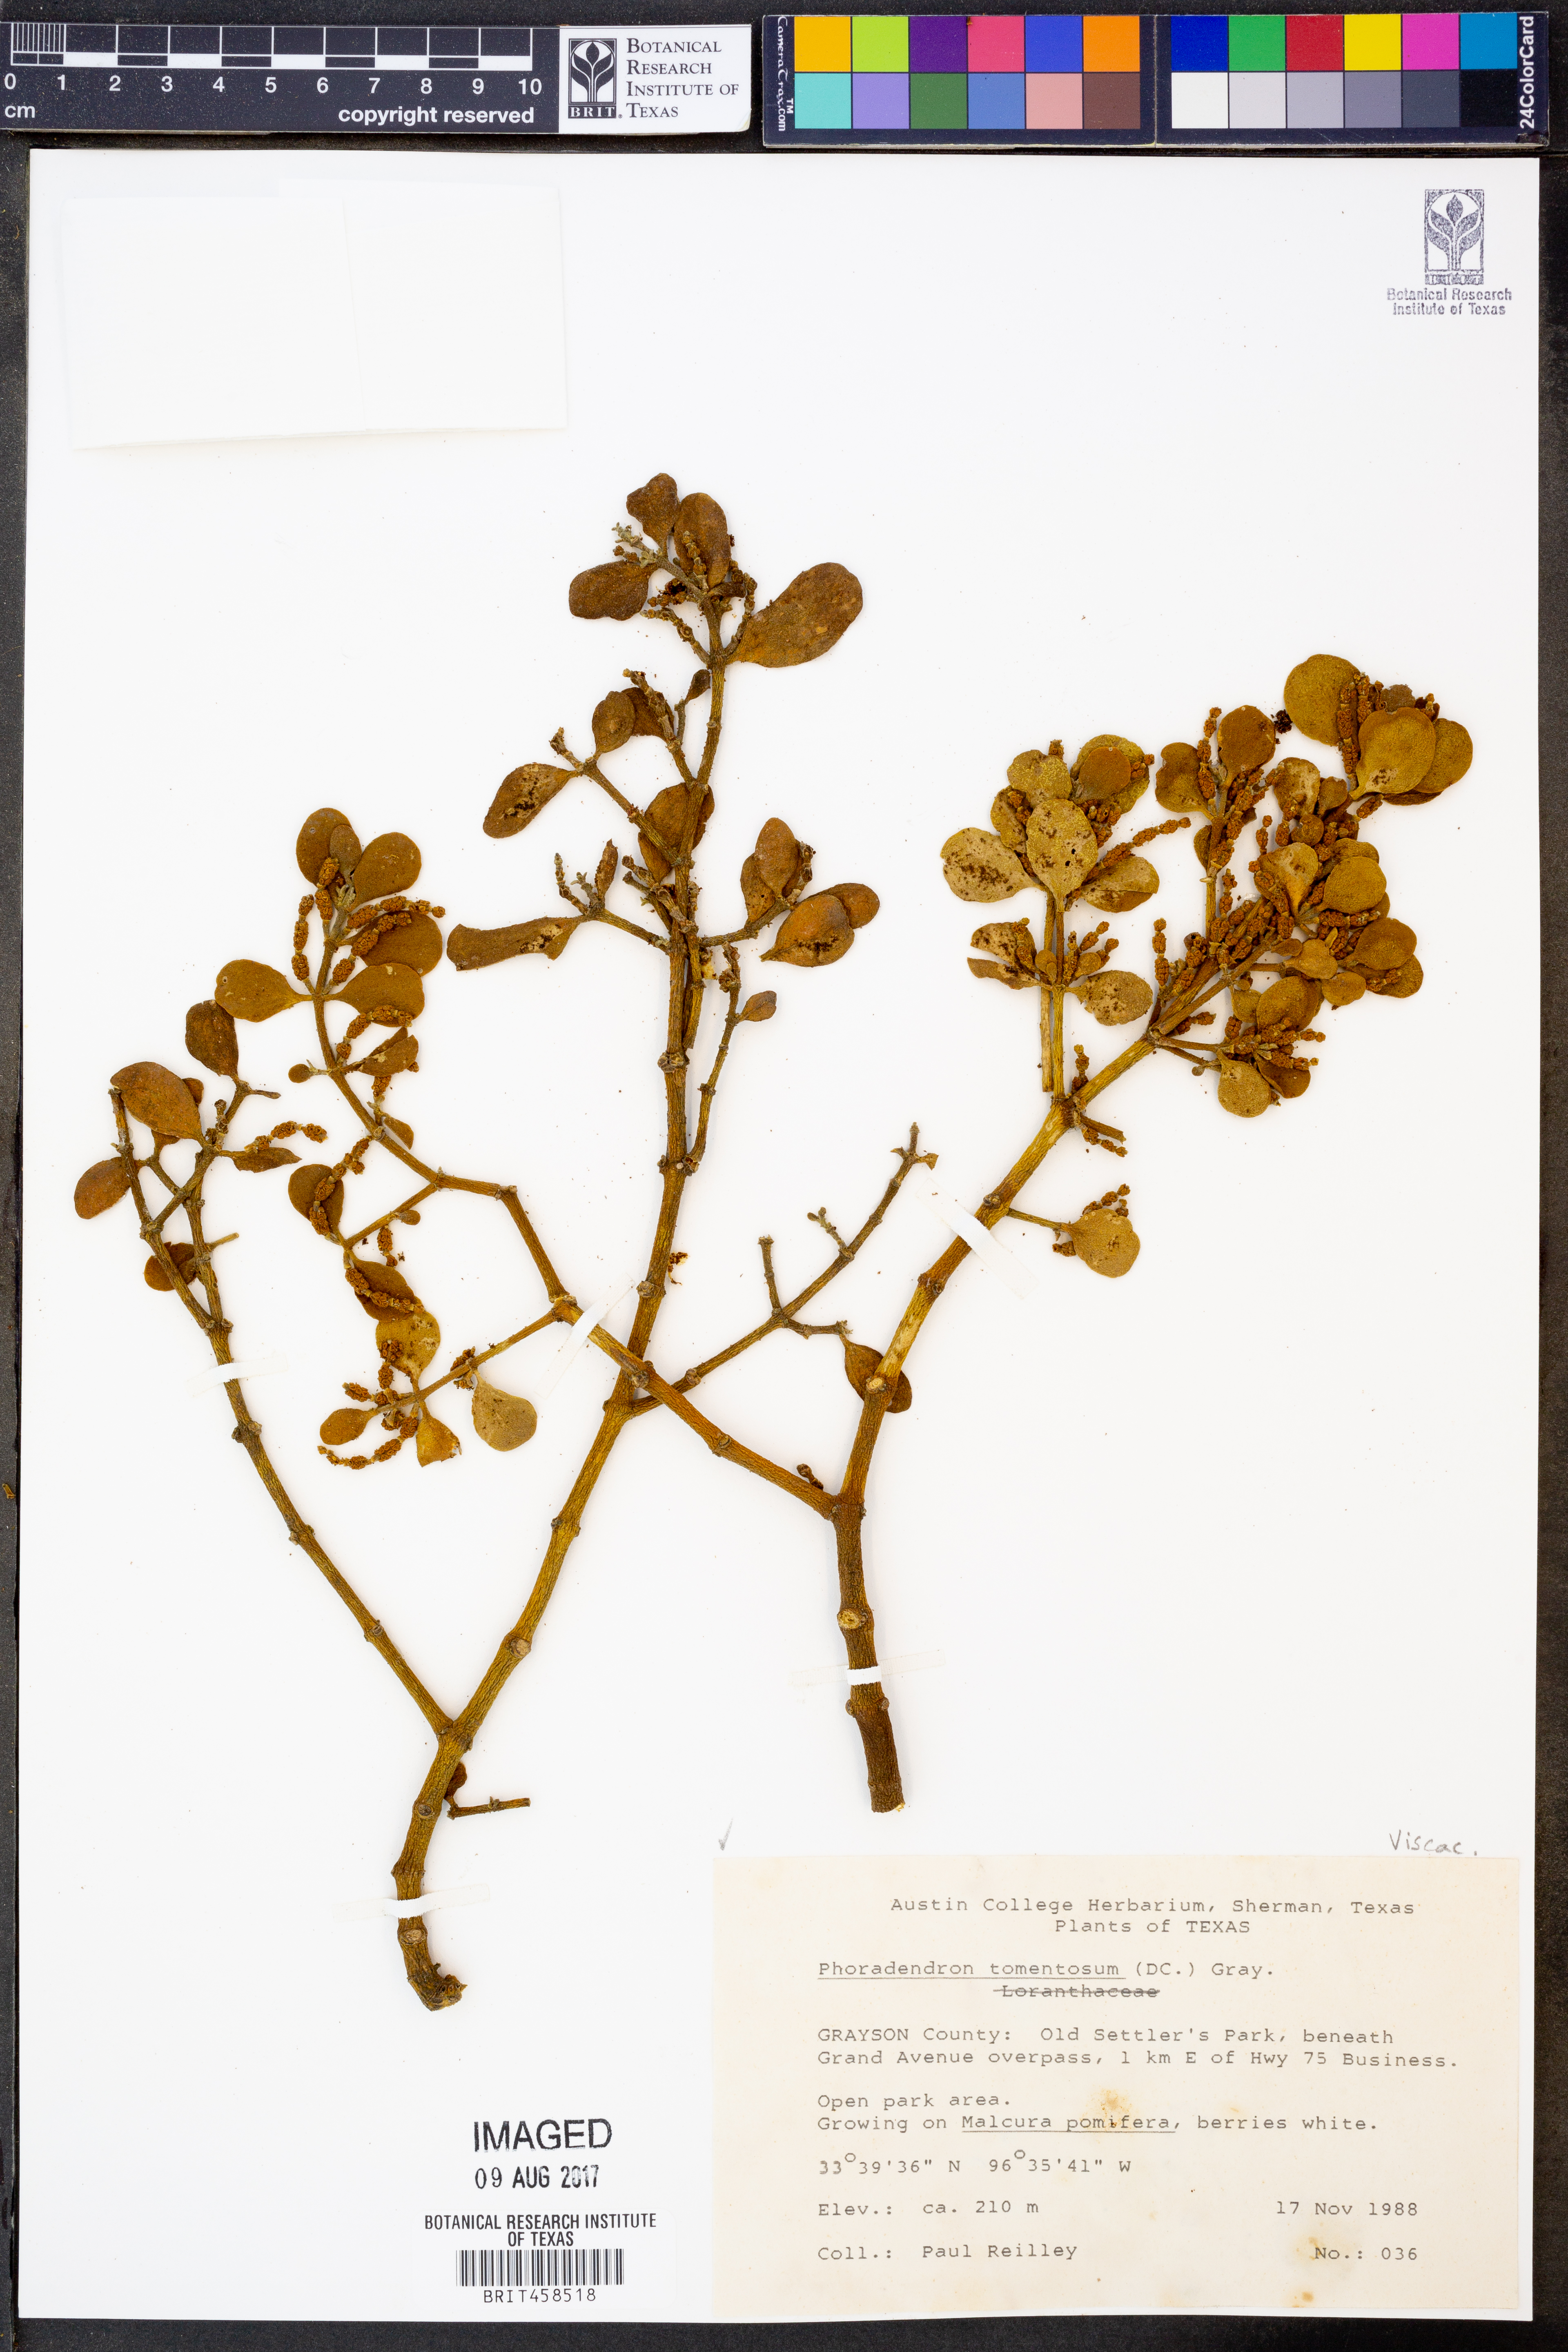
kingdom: Plantae
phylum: Tracheophyta
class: Magnoliopsida
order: Santalales
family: Viscaceae
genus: Phoradendron
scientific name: Phoradendron leucarpum
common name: Pacific mistletoe
